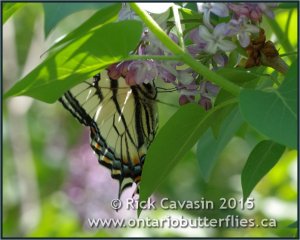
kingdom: Animalia
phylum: Arthropoda
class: Insecta
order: Lepidoptera
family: Papilionidae
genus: Pterourus
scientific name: Pterourus canadensis
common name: Canadian Tiger Swallowtail
